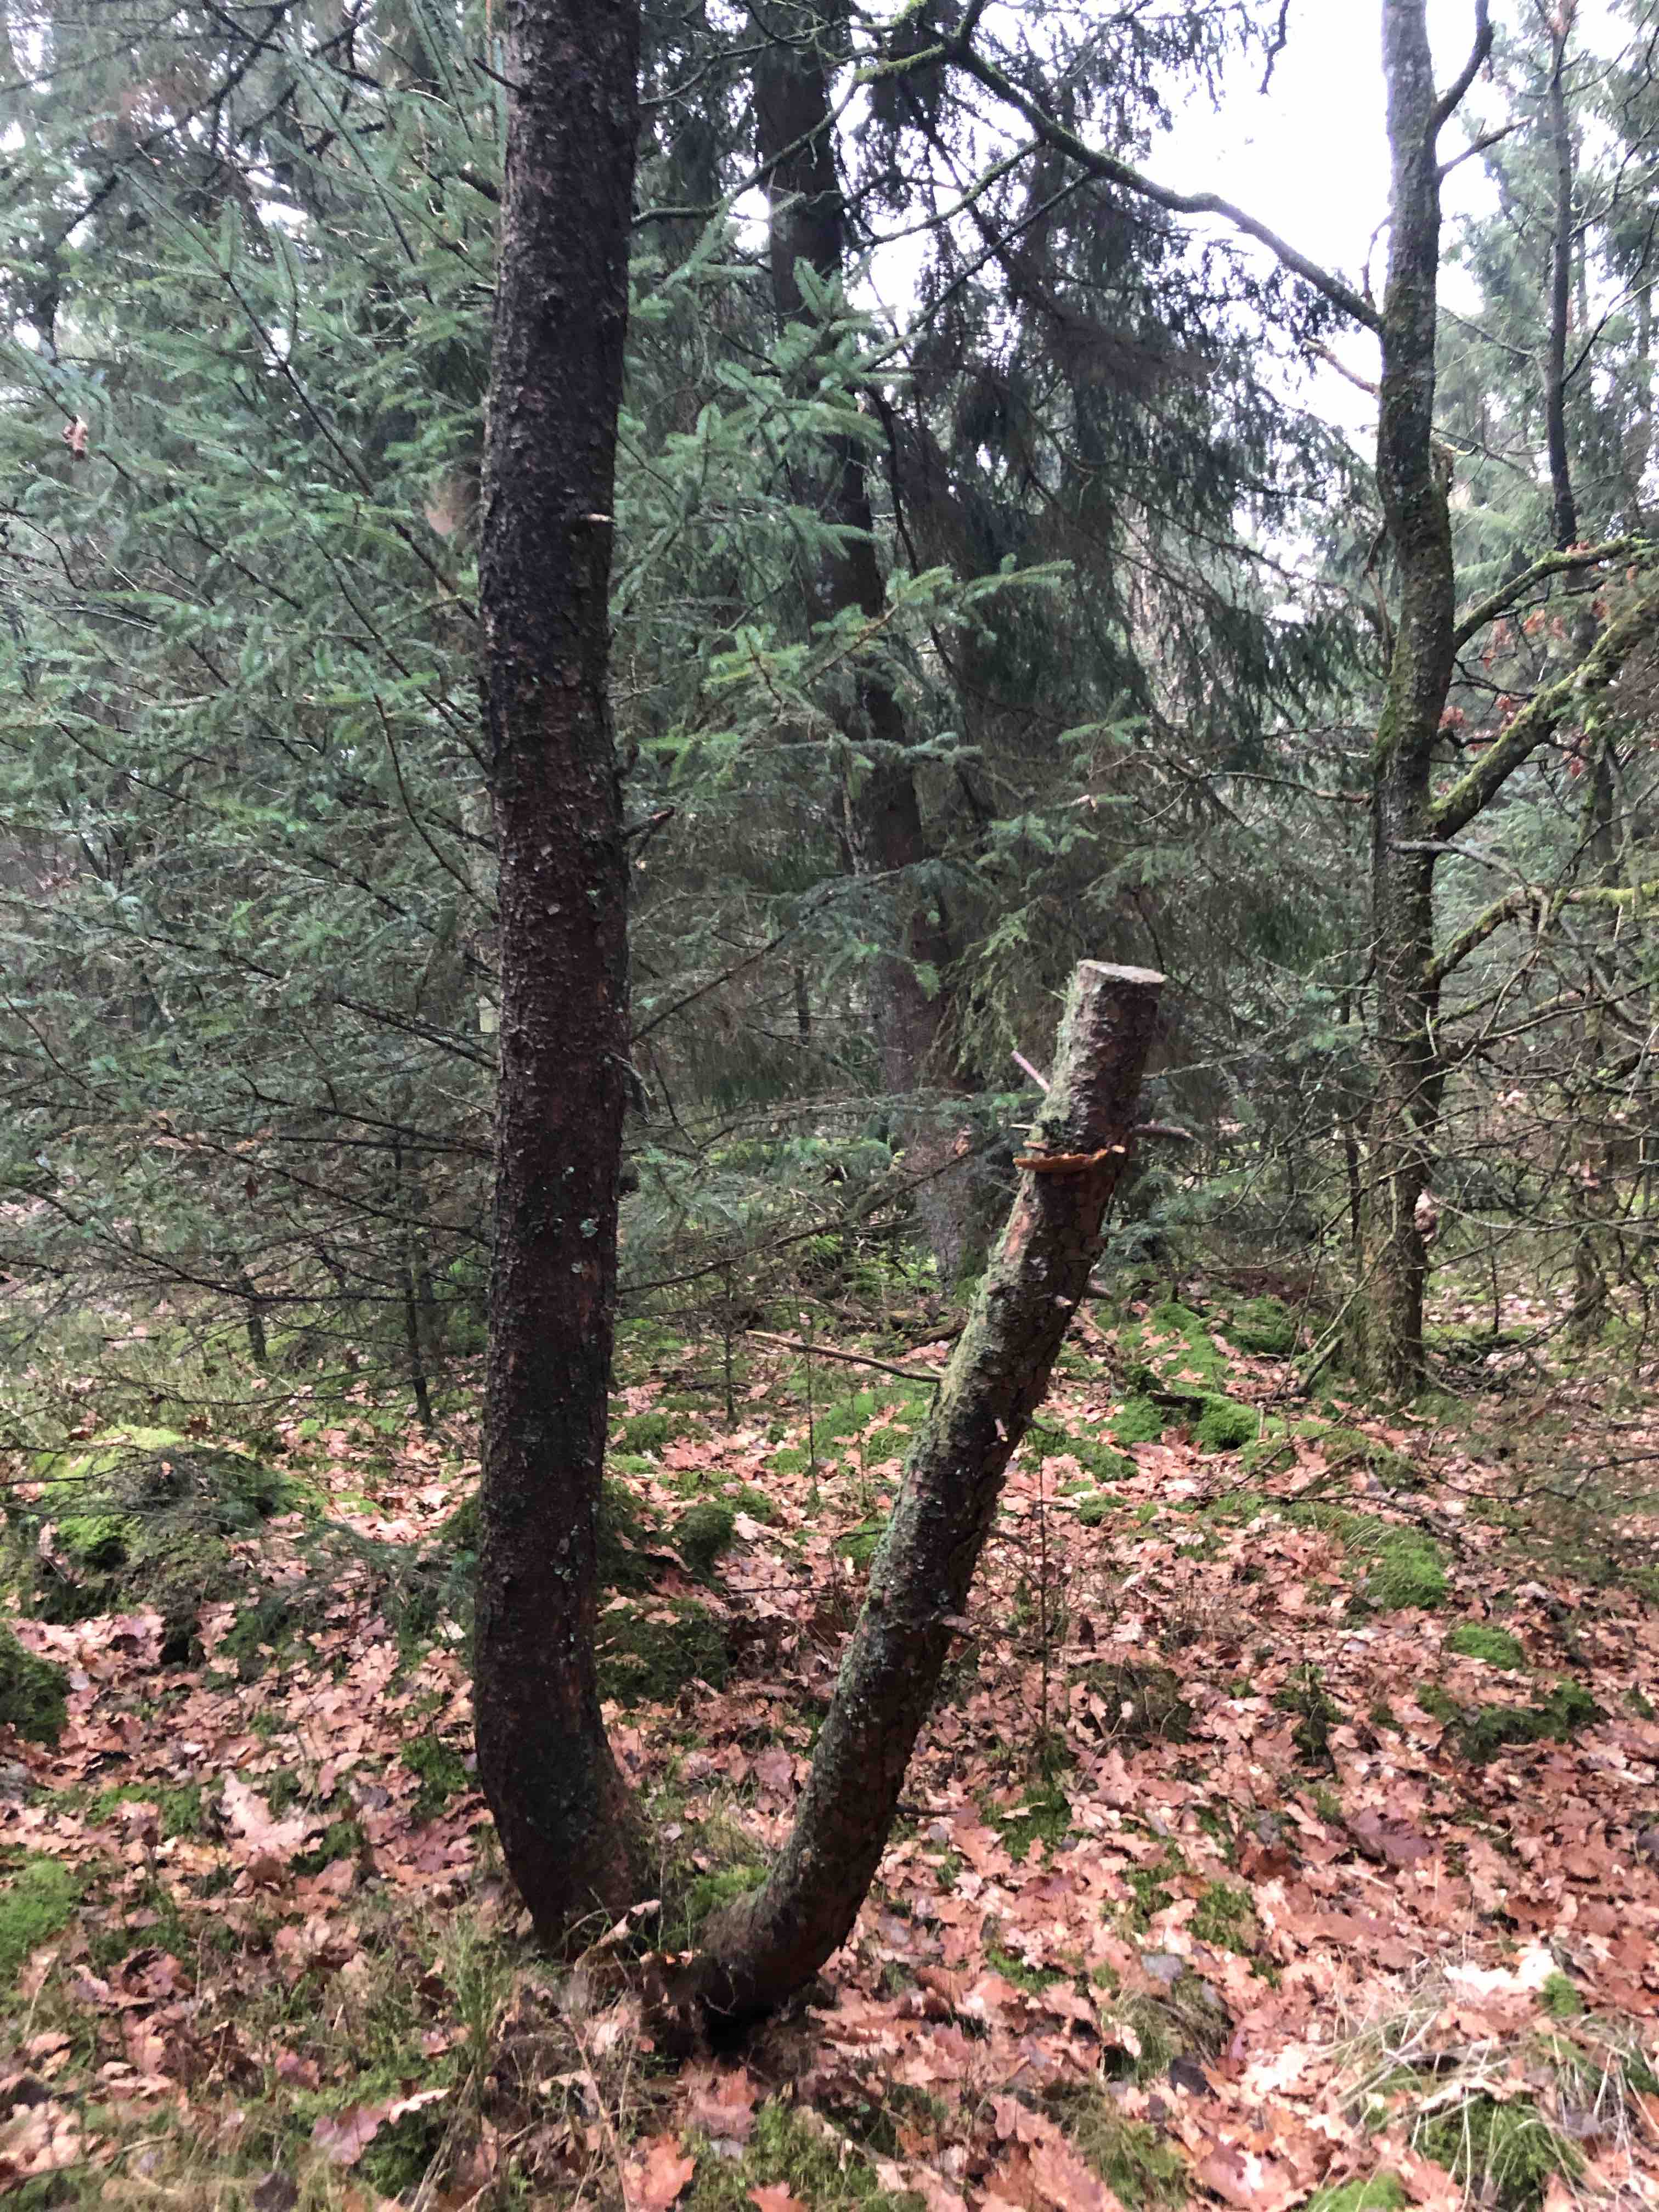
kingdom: Fungi
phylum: Basidiomycota
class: Agaricomycetes
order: Gloeophyllales
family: Gloeophyllaceae
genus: Gloeophyllum
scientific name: Gloeophyllum sepiarium
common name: fyrre-korkhat
